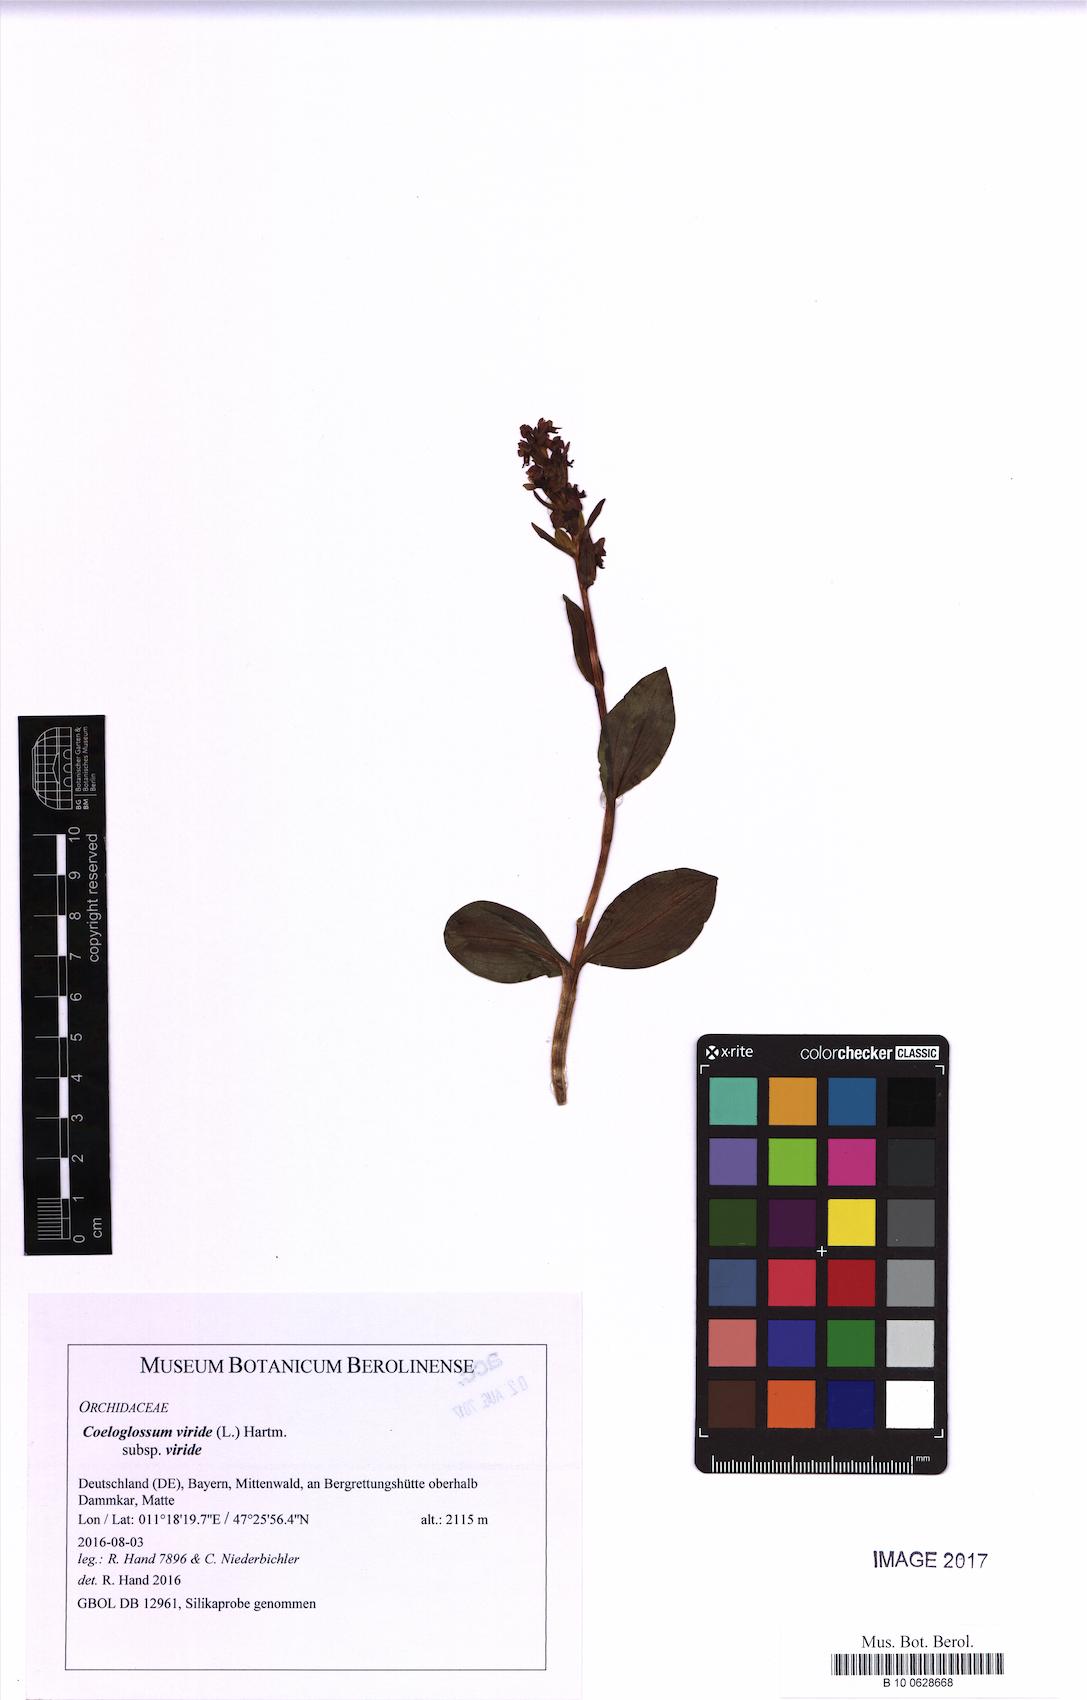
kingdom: Plantae
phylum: Tracheophyta
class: Liliopsida
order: Asparagales
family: Orchidaceae
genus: Dactylorhiza
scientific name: Dactylorhiza viridis
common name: Longbract frog orchid
